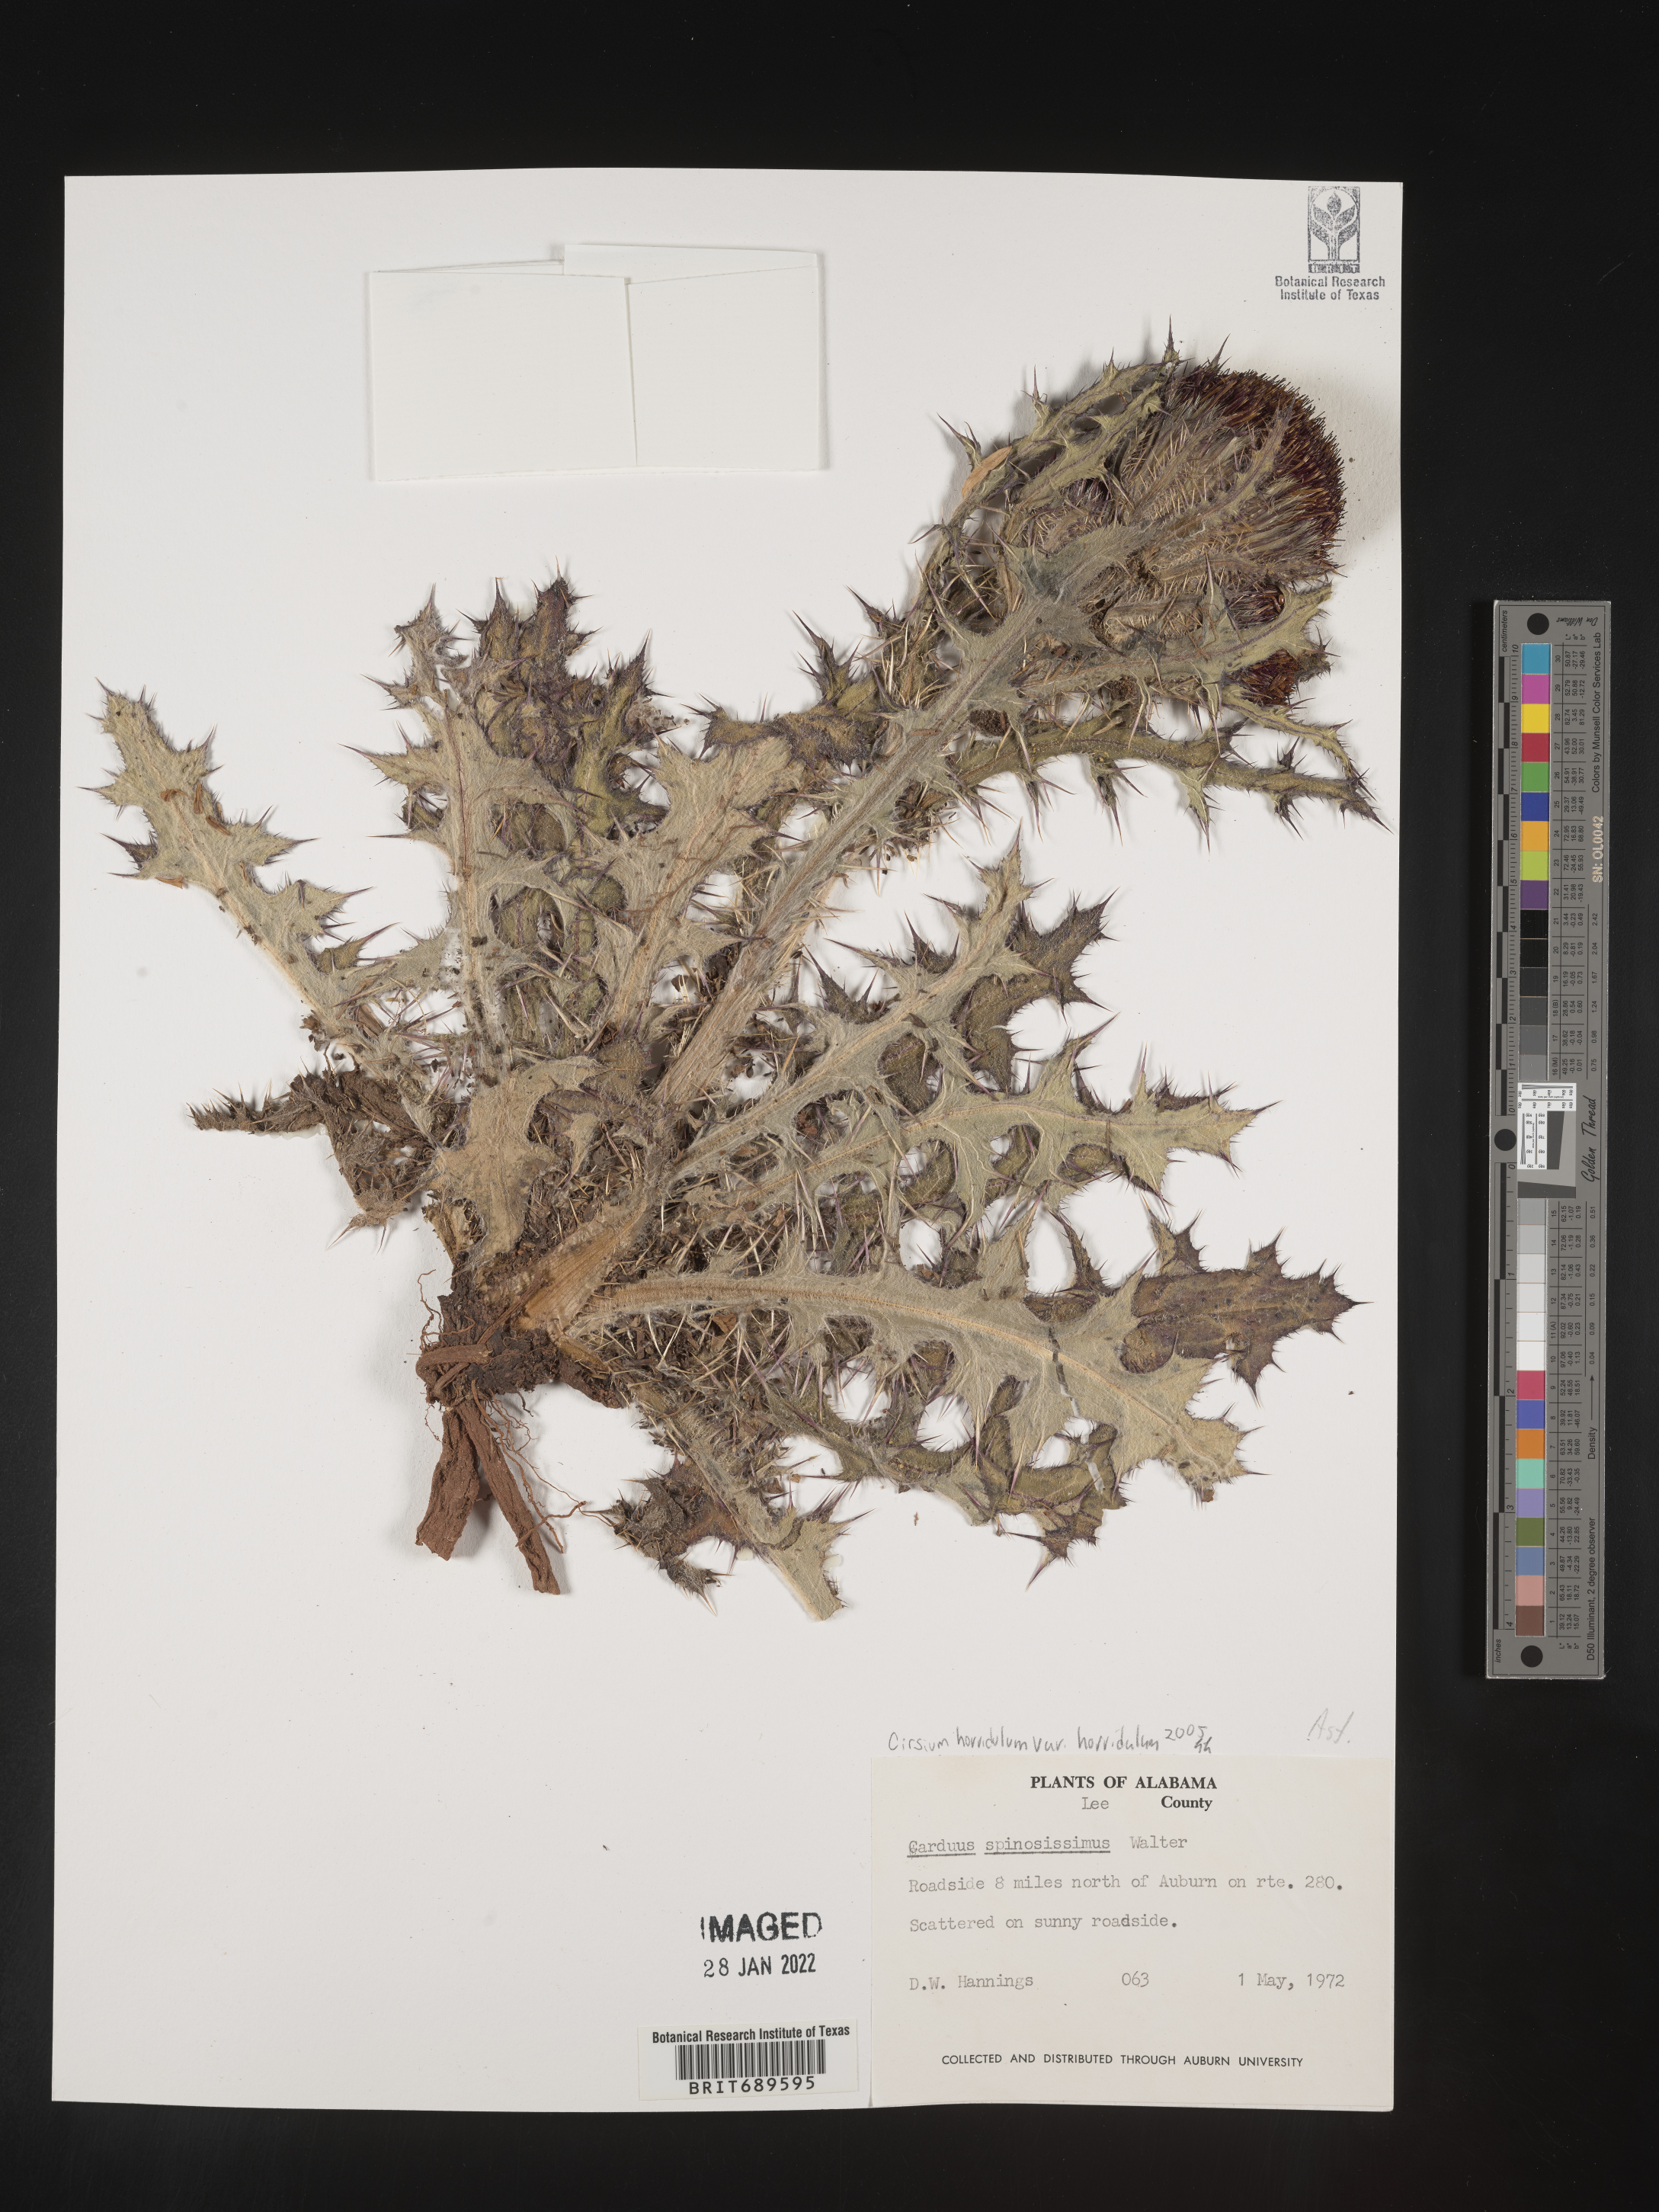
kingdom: Plantae
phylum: Tracheophyta
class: Magnoliopsida
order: Asterales
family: Asteraceae
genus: Cirsium
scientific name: Cirsium horridulum
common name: Bristly thistle
